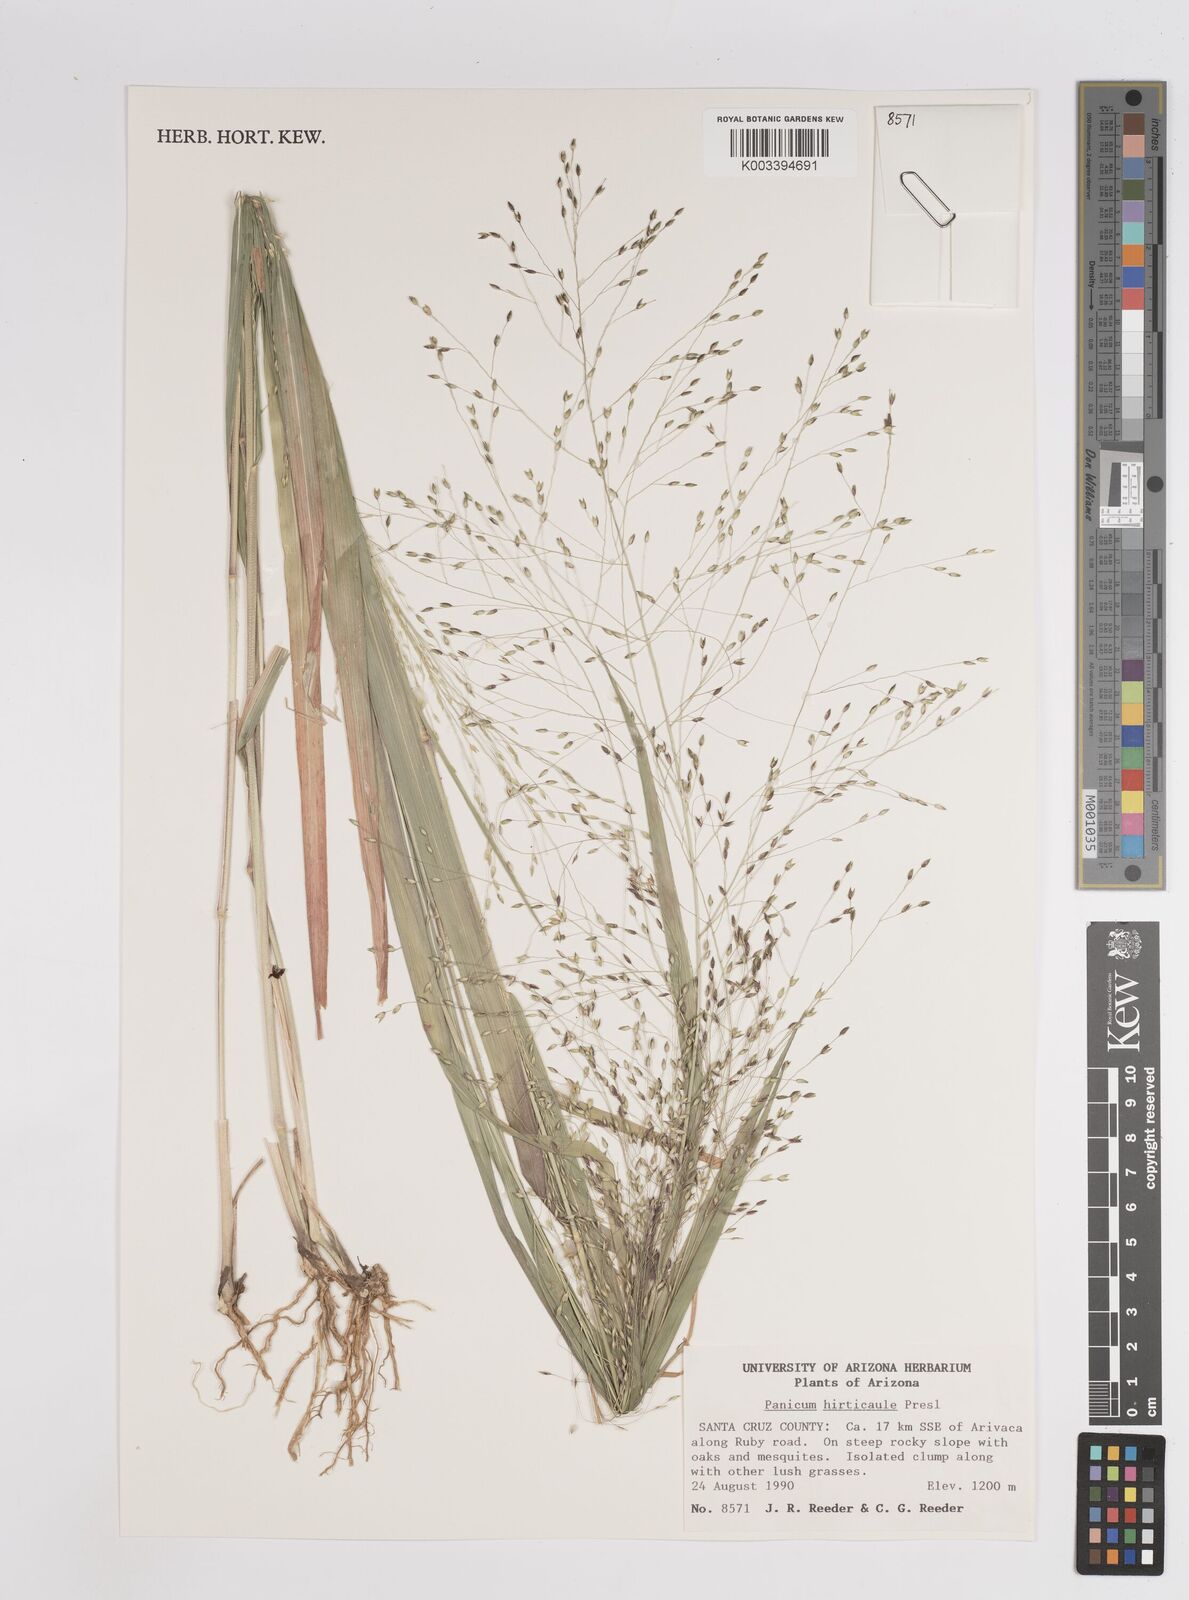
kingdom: Plantae
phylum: Tracheophyta
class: Liliopsida
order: Poales
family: Poaceae
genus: Panicum
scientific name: Panicum
